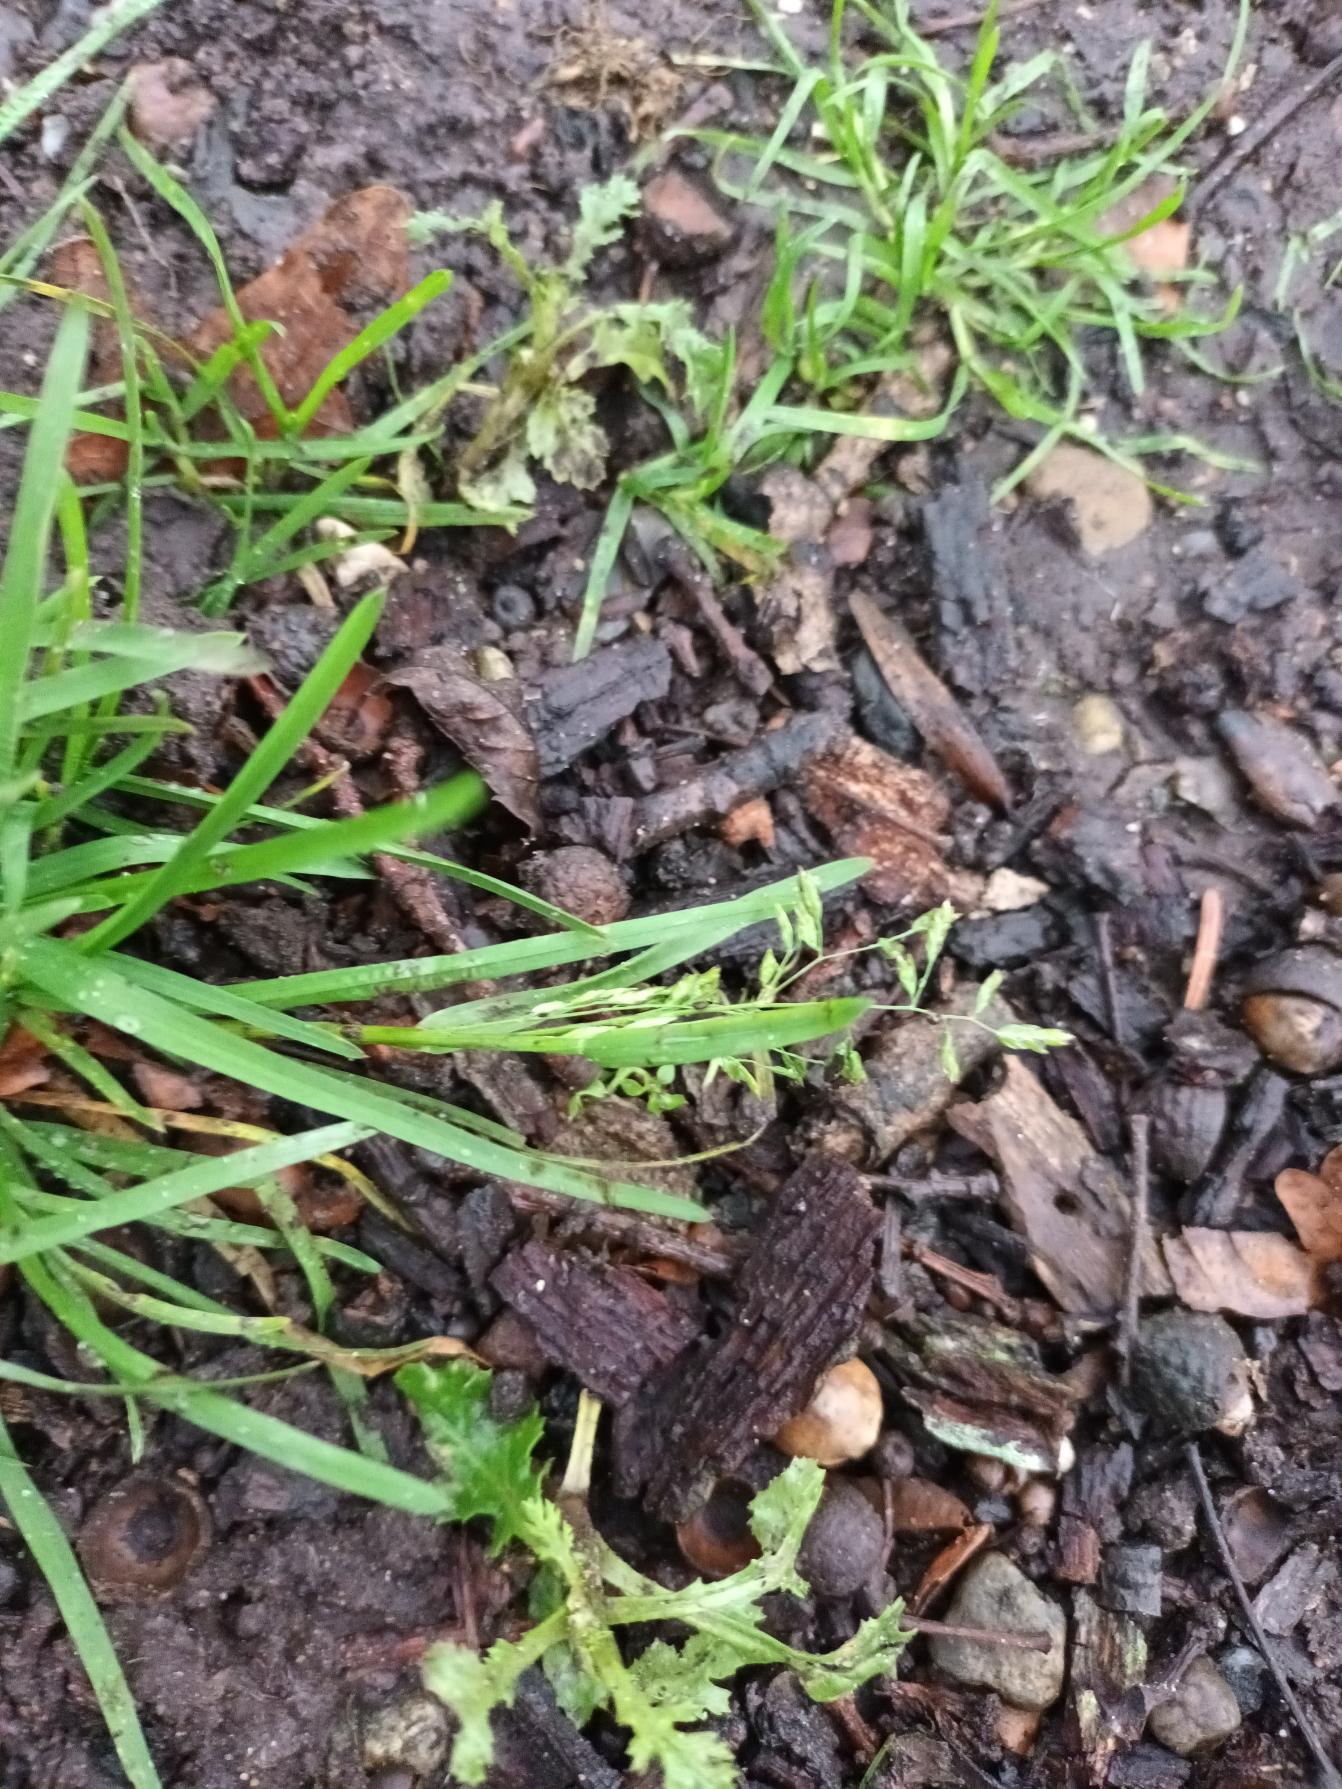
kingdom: Plantae
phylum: Tracheophyta
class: Liliopsida
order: Poales
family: Poaceae
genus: Poa
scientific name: Poa annua
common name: Enårig rapgræs
